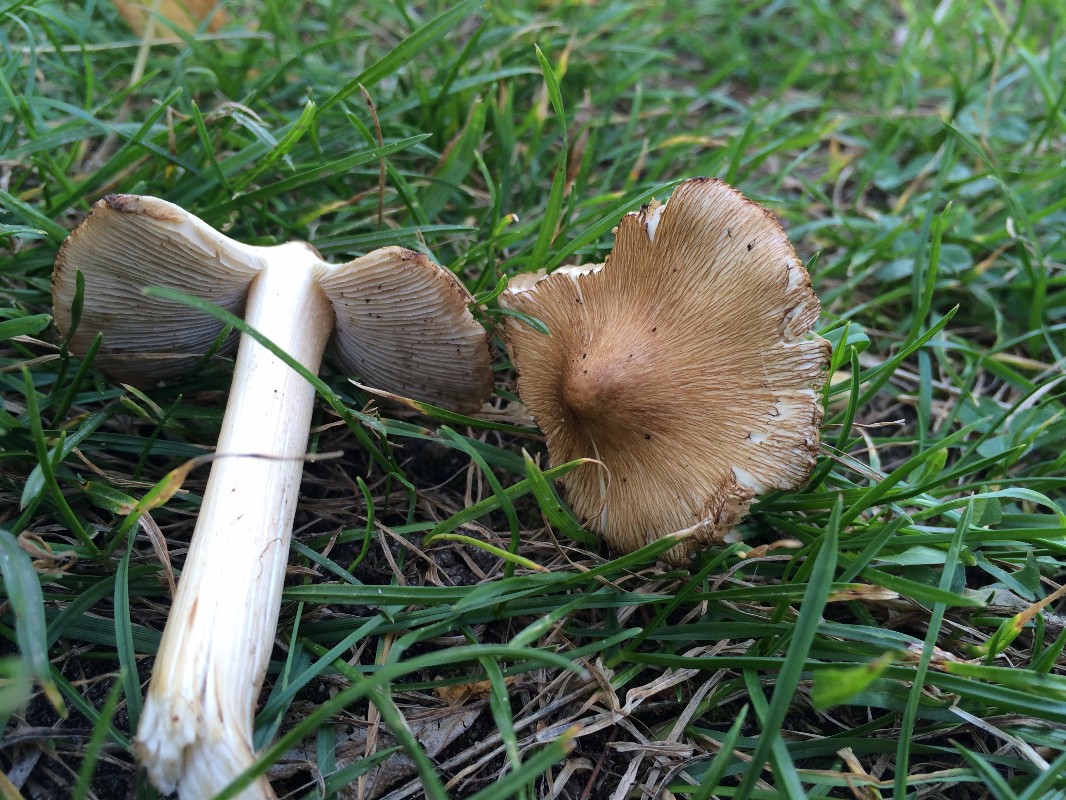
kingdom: Fungi
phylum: Basidiomycota
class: Agaricomycetes
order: Agaricales
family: Inocybaceae
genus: Pseudosperma
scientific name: Pseudosperma perlatum
